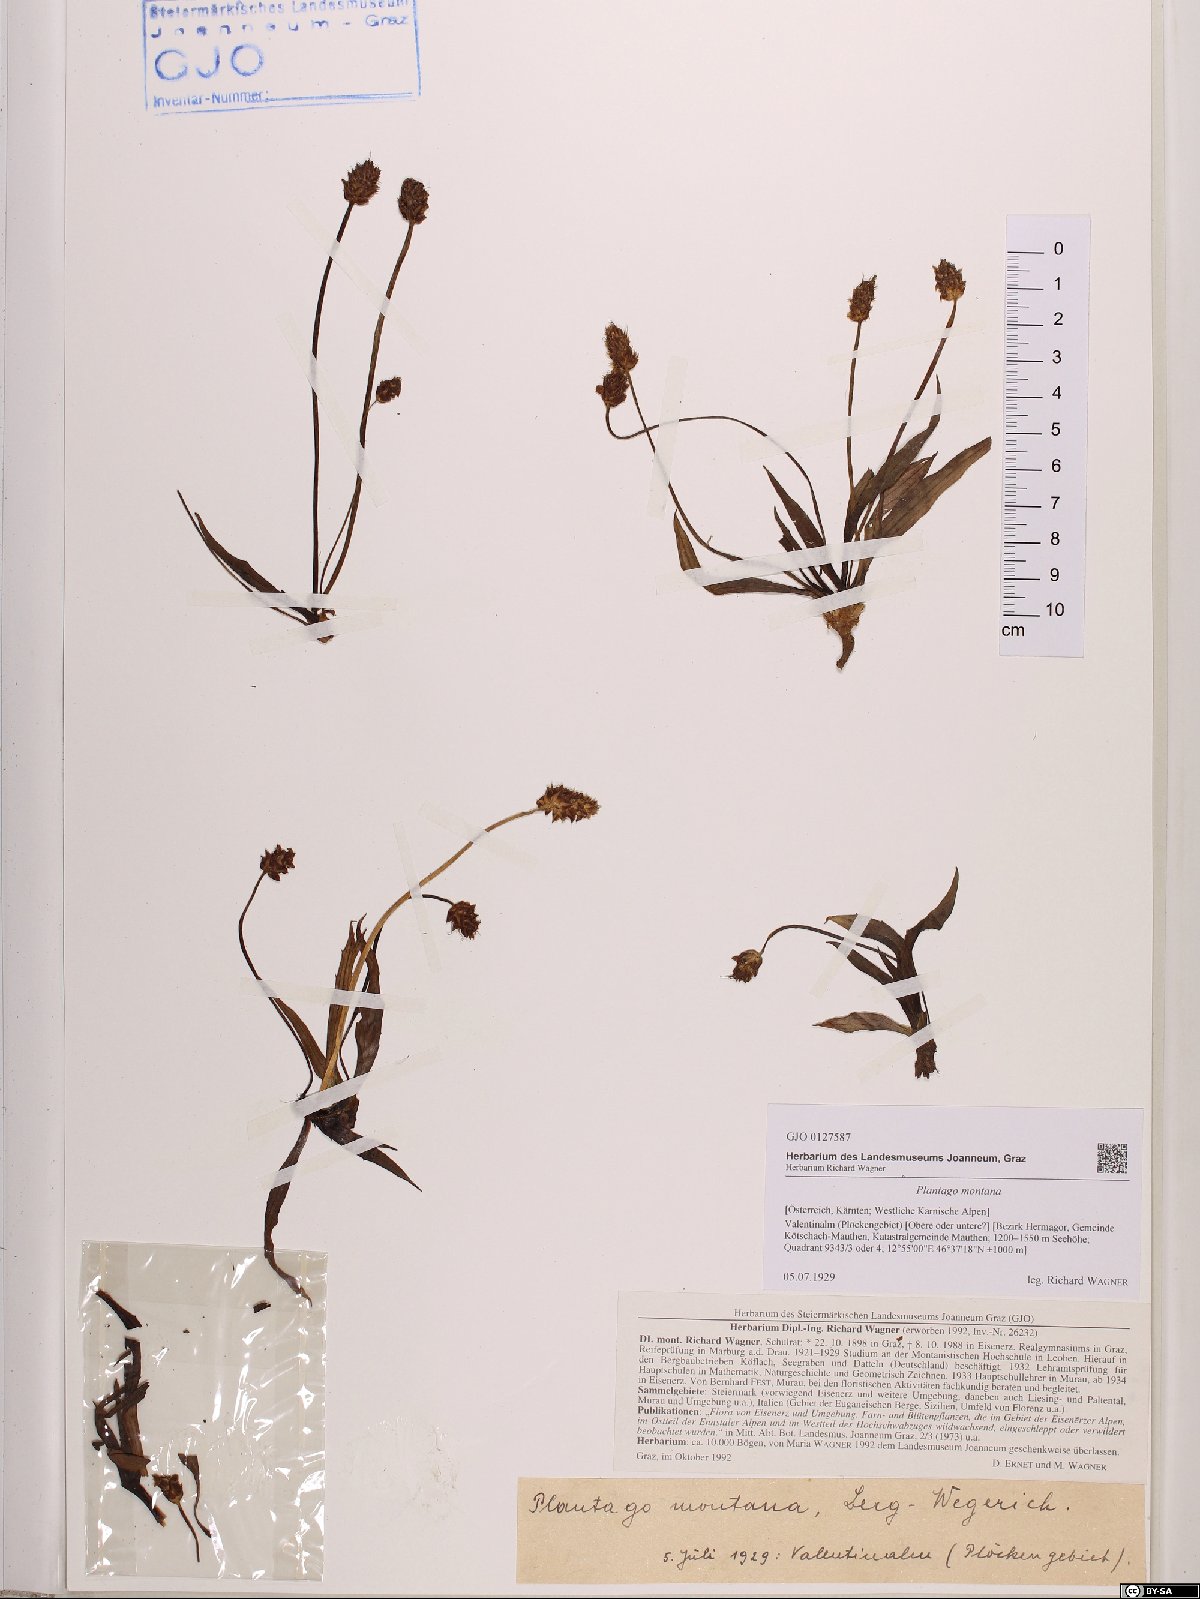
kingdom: Plantae
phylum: Tracheophyta
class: Magnoliopsida
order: Lamiales
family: Plantaginaceae
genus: Plantago
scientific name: Plantago atrata
